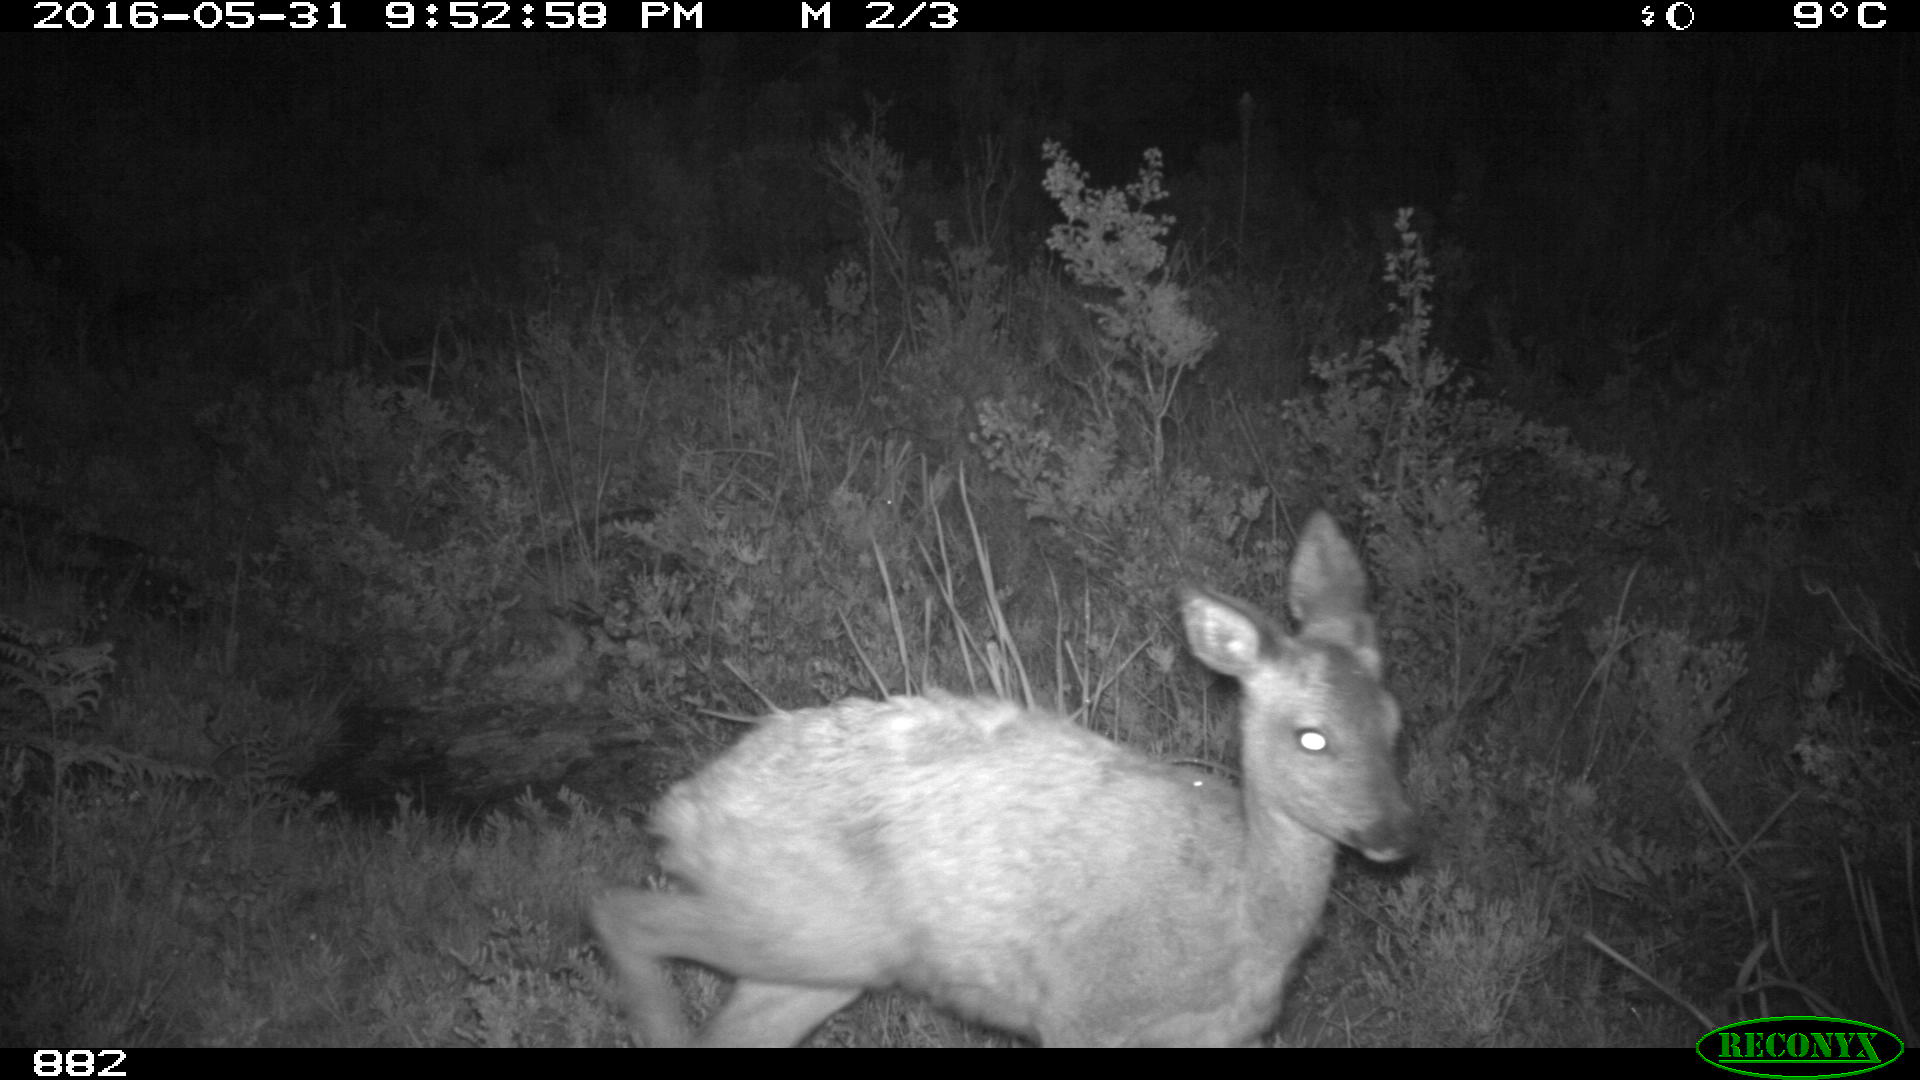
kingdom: Animalia
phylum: Chordata
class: Mammalia
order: Artiodactyla
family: Cervidae
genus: Capreolus
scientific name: Capreolus capreolus
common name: Western roe deer
